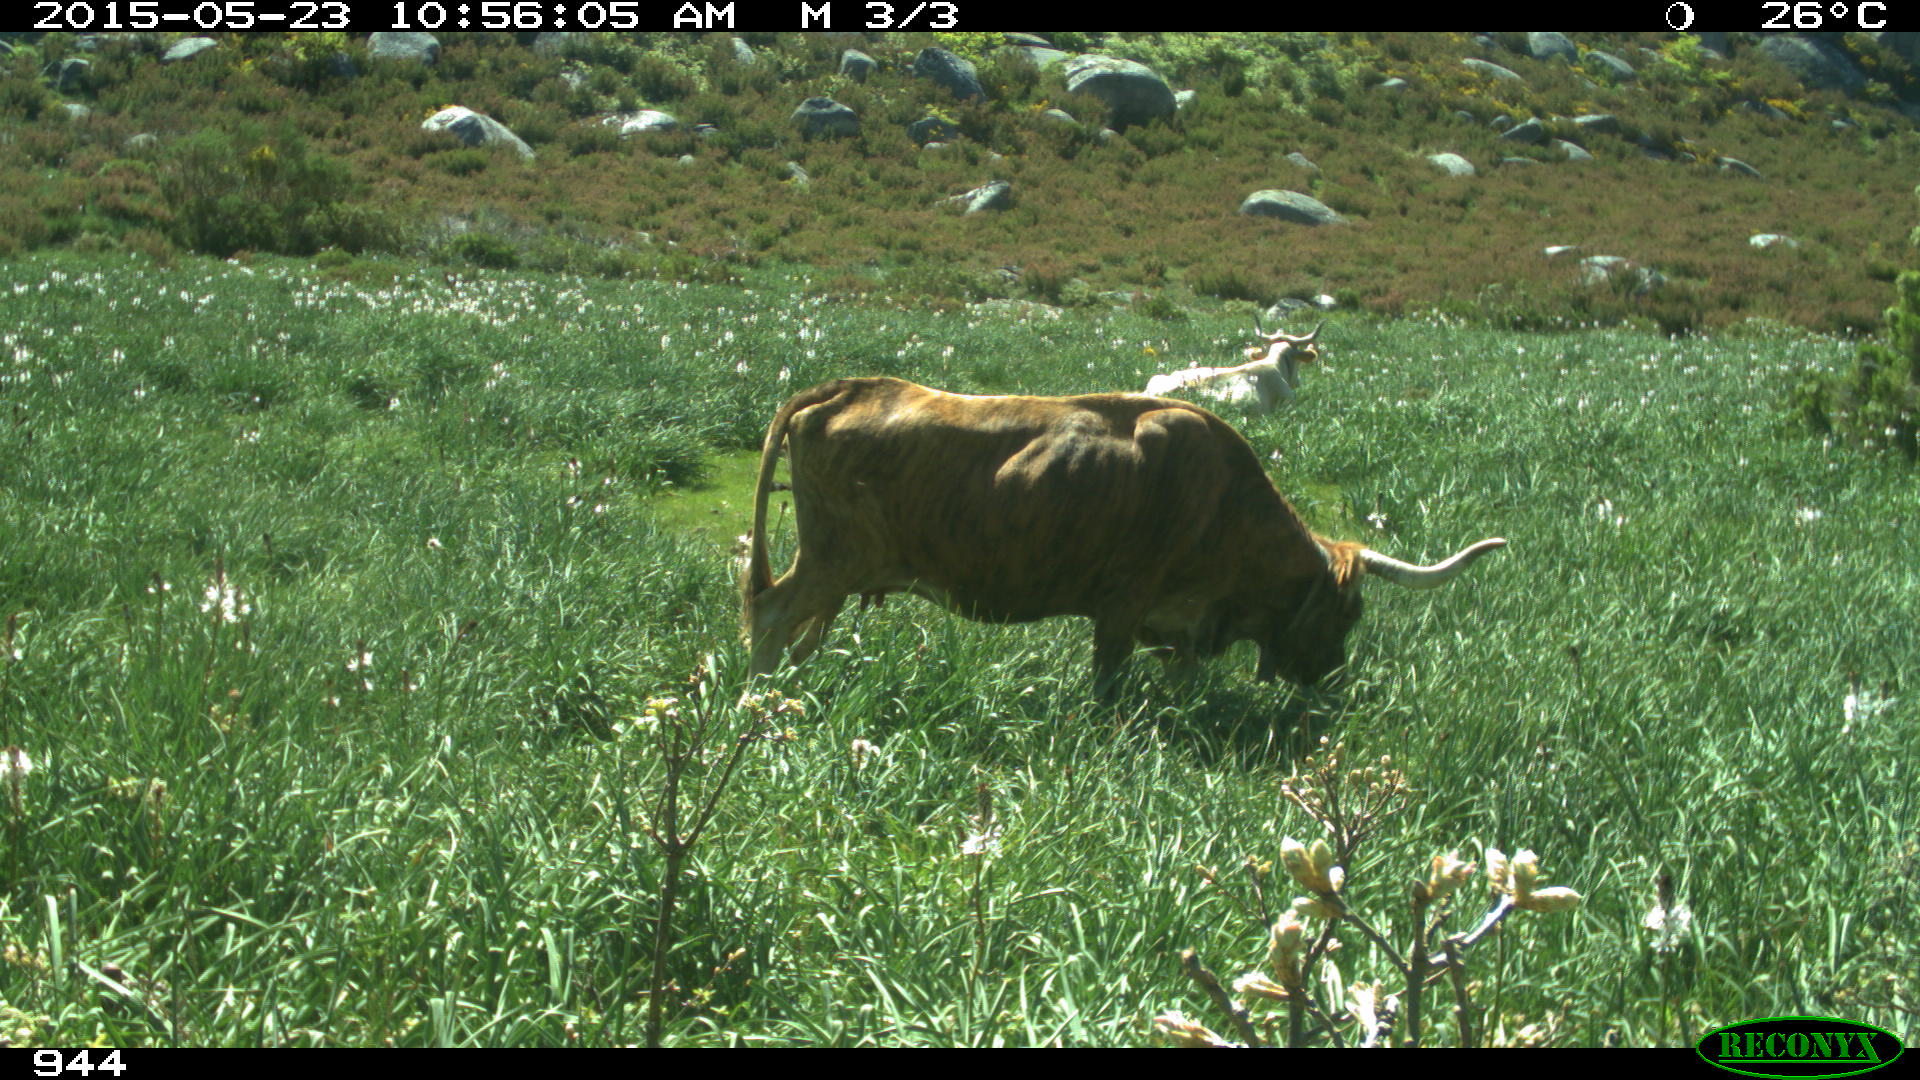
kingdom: Animalia
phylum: Chordata
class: Mammalia
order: Artiodactyla
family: Bovidae
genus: Bos
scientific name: Bos taurus
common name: Domesticated cattle
